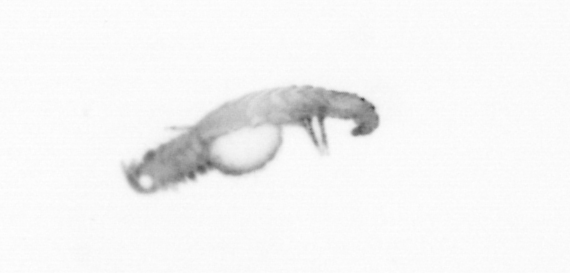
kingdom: Animalia
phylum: Annelida
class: Polychaeta
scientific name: Polychaeta
